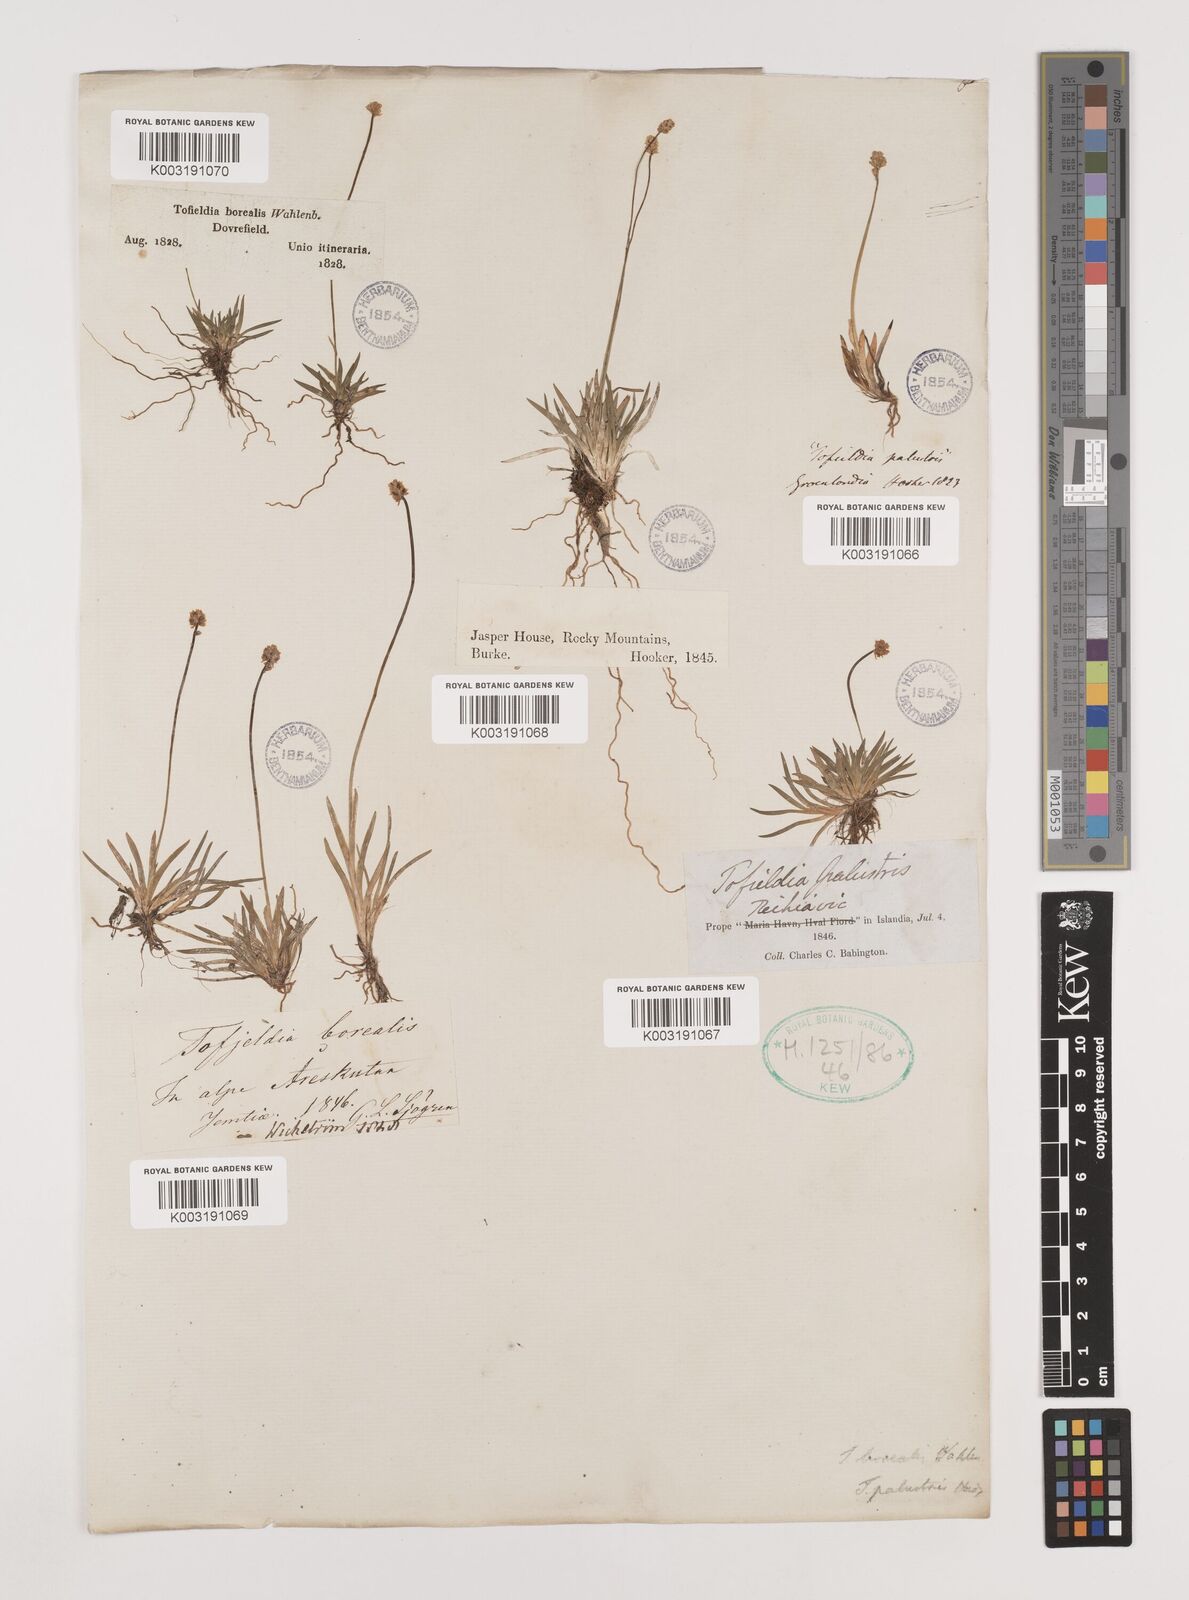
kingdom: Plantae
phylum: Tracheophyta
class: Liliopsida
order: Alismatales
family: Tofieldiaceae
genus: Tofieldia
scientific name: Tofieldia pusilla
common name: Scottish false asphodel
